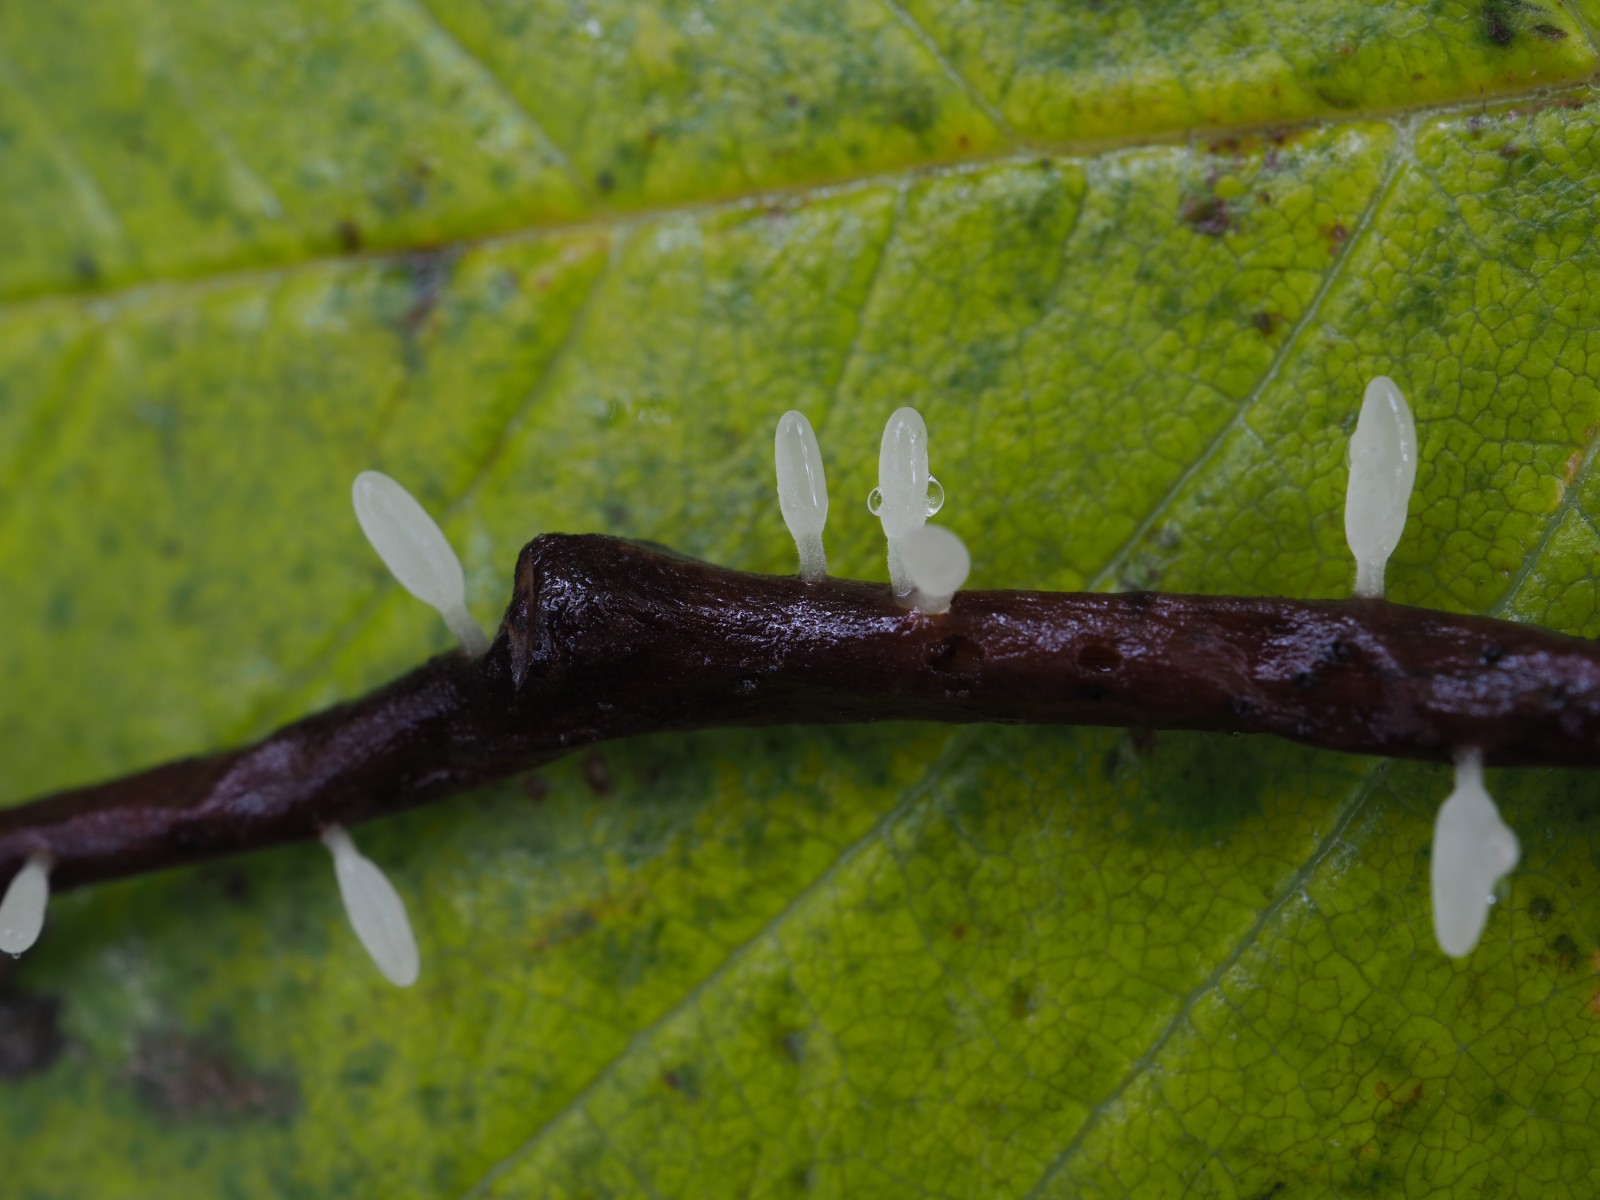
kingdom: Fungi
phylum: Basidiomycota
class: Agaricomycetes
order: Agaricales
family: Typhulaceae
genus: Typhula
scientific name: Typhula spathulata
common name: aske-trådkølle
